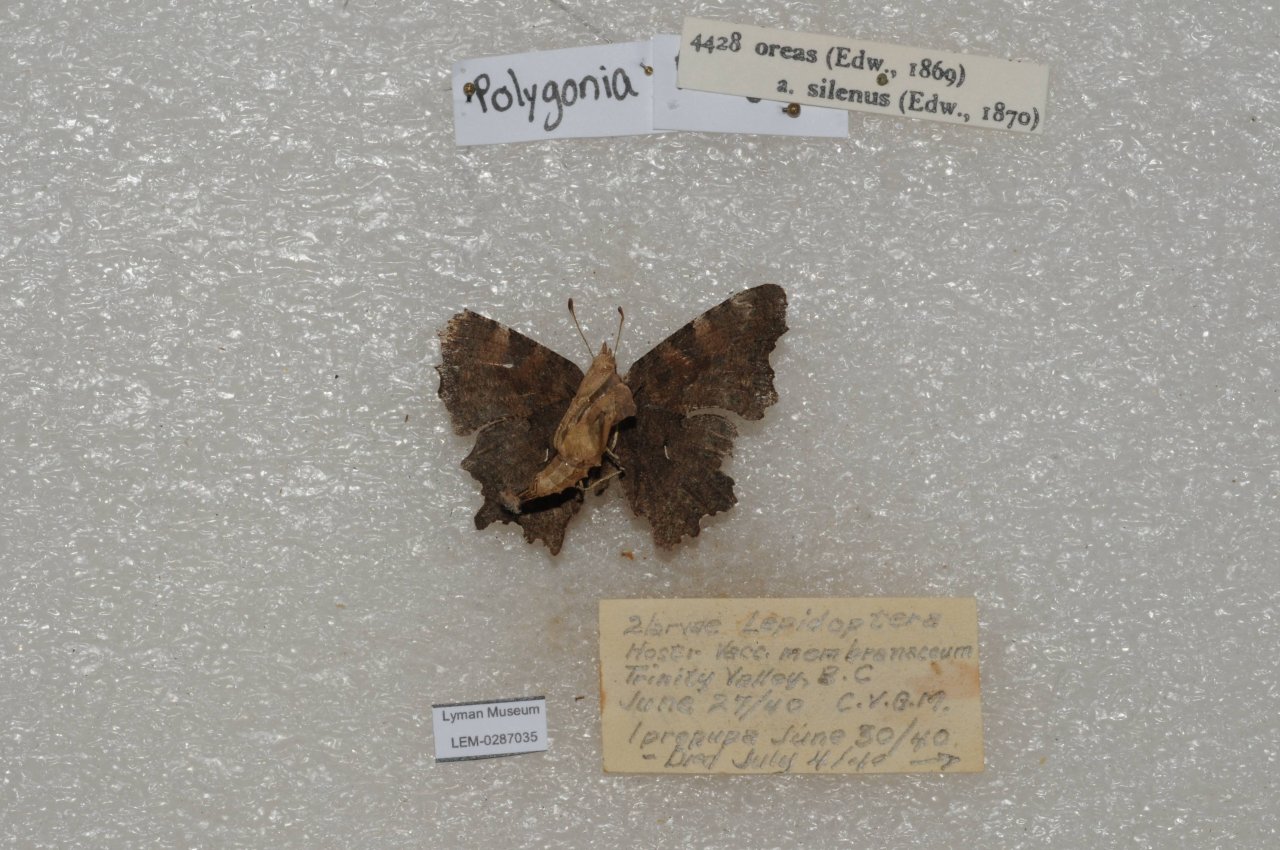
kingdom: Animalia
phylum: Arthropoda
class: Insecta
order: Lepidoptera
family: Nymphalidae
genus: Polygonia
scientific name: Polygonia oreas
